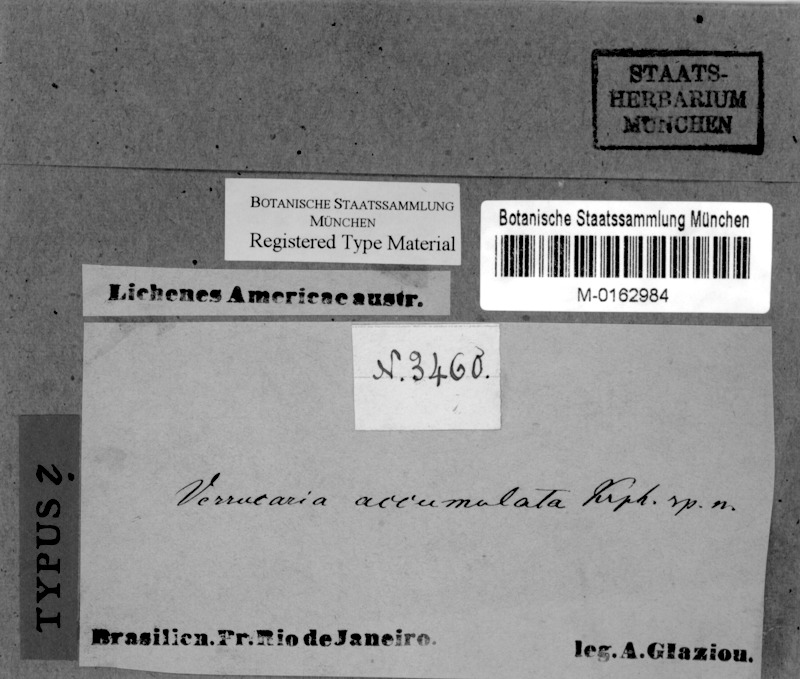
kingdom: Fungi
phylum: Ascomycota
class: Dothideomycetes
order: Pleosporales
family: Naetrocymbaceae
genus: Tomasellia
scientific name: Tomasellia
